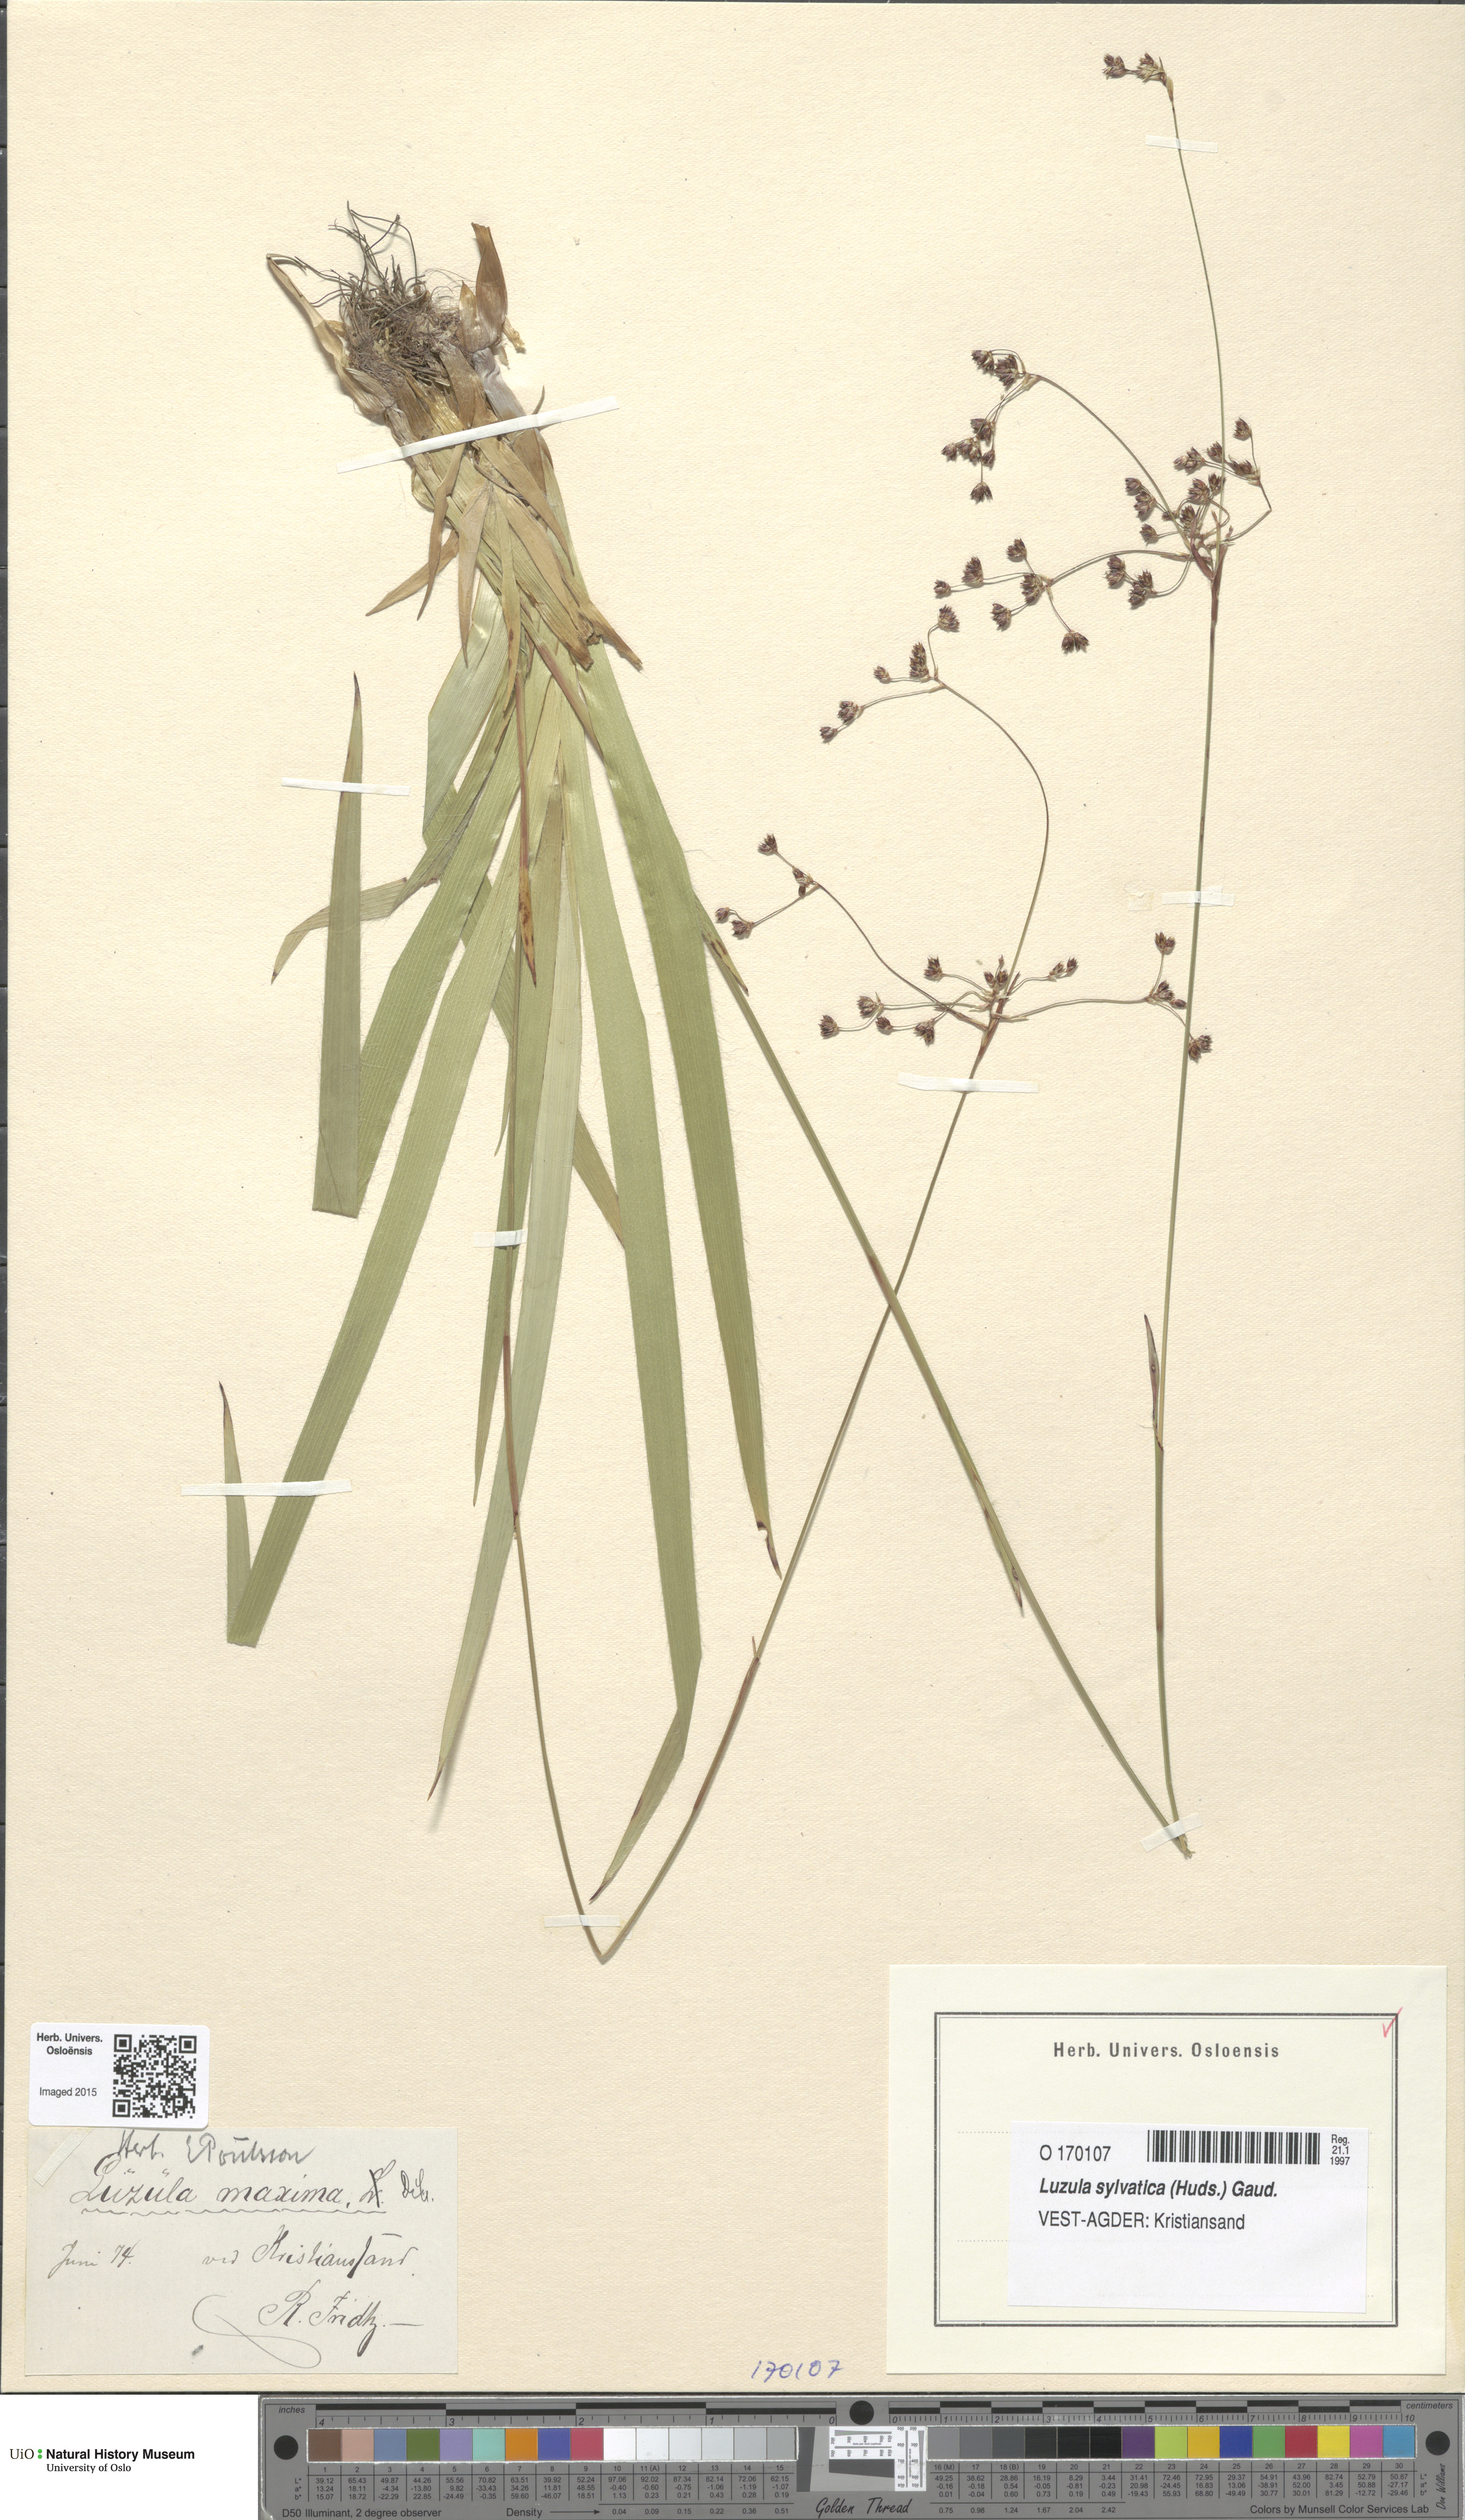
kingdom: Plantae
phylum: Tracheophyta
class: Liliopsida
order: Poales
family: Juncaceae
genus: Luzula
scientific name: Luzula sylvatica
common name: Great wood-rush
